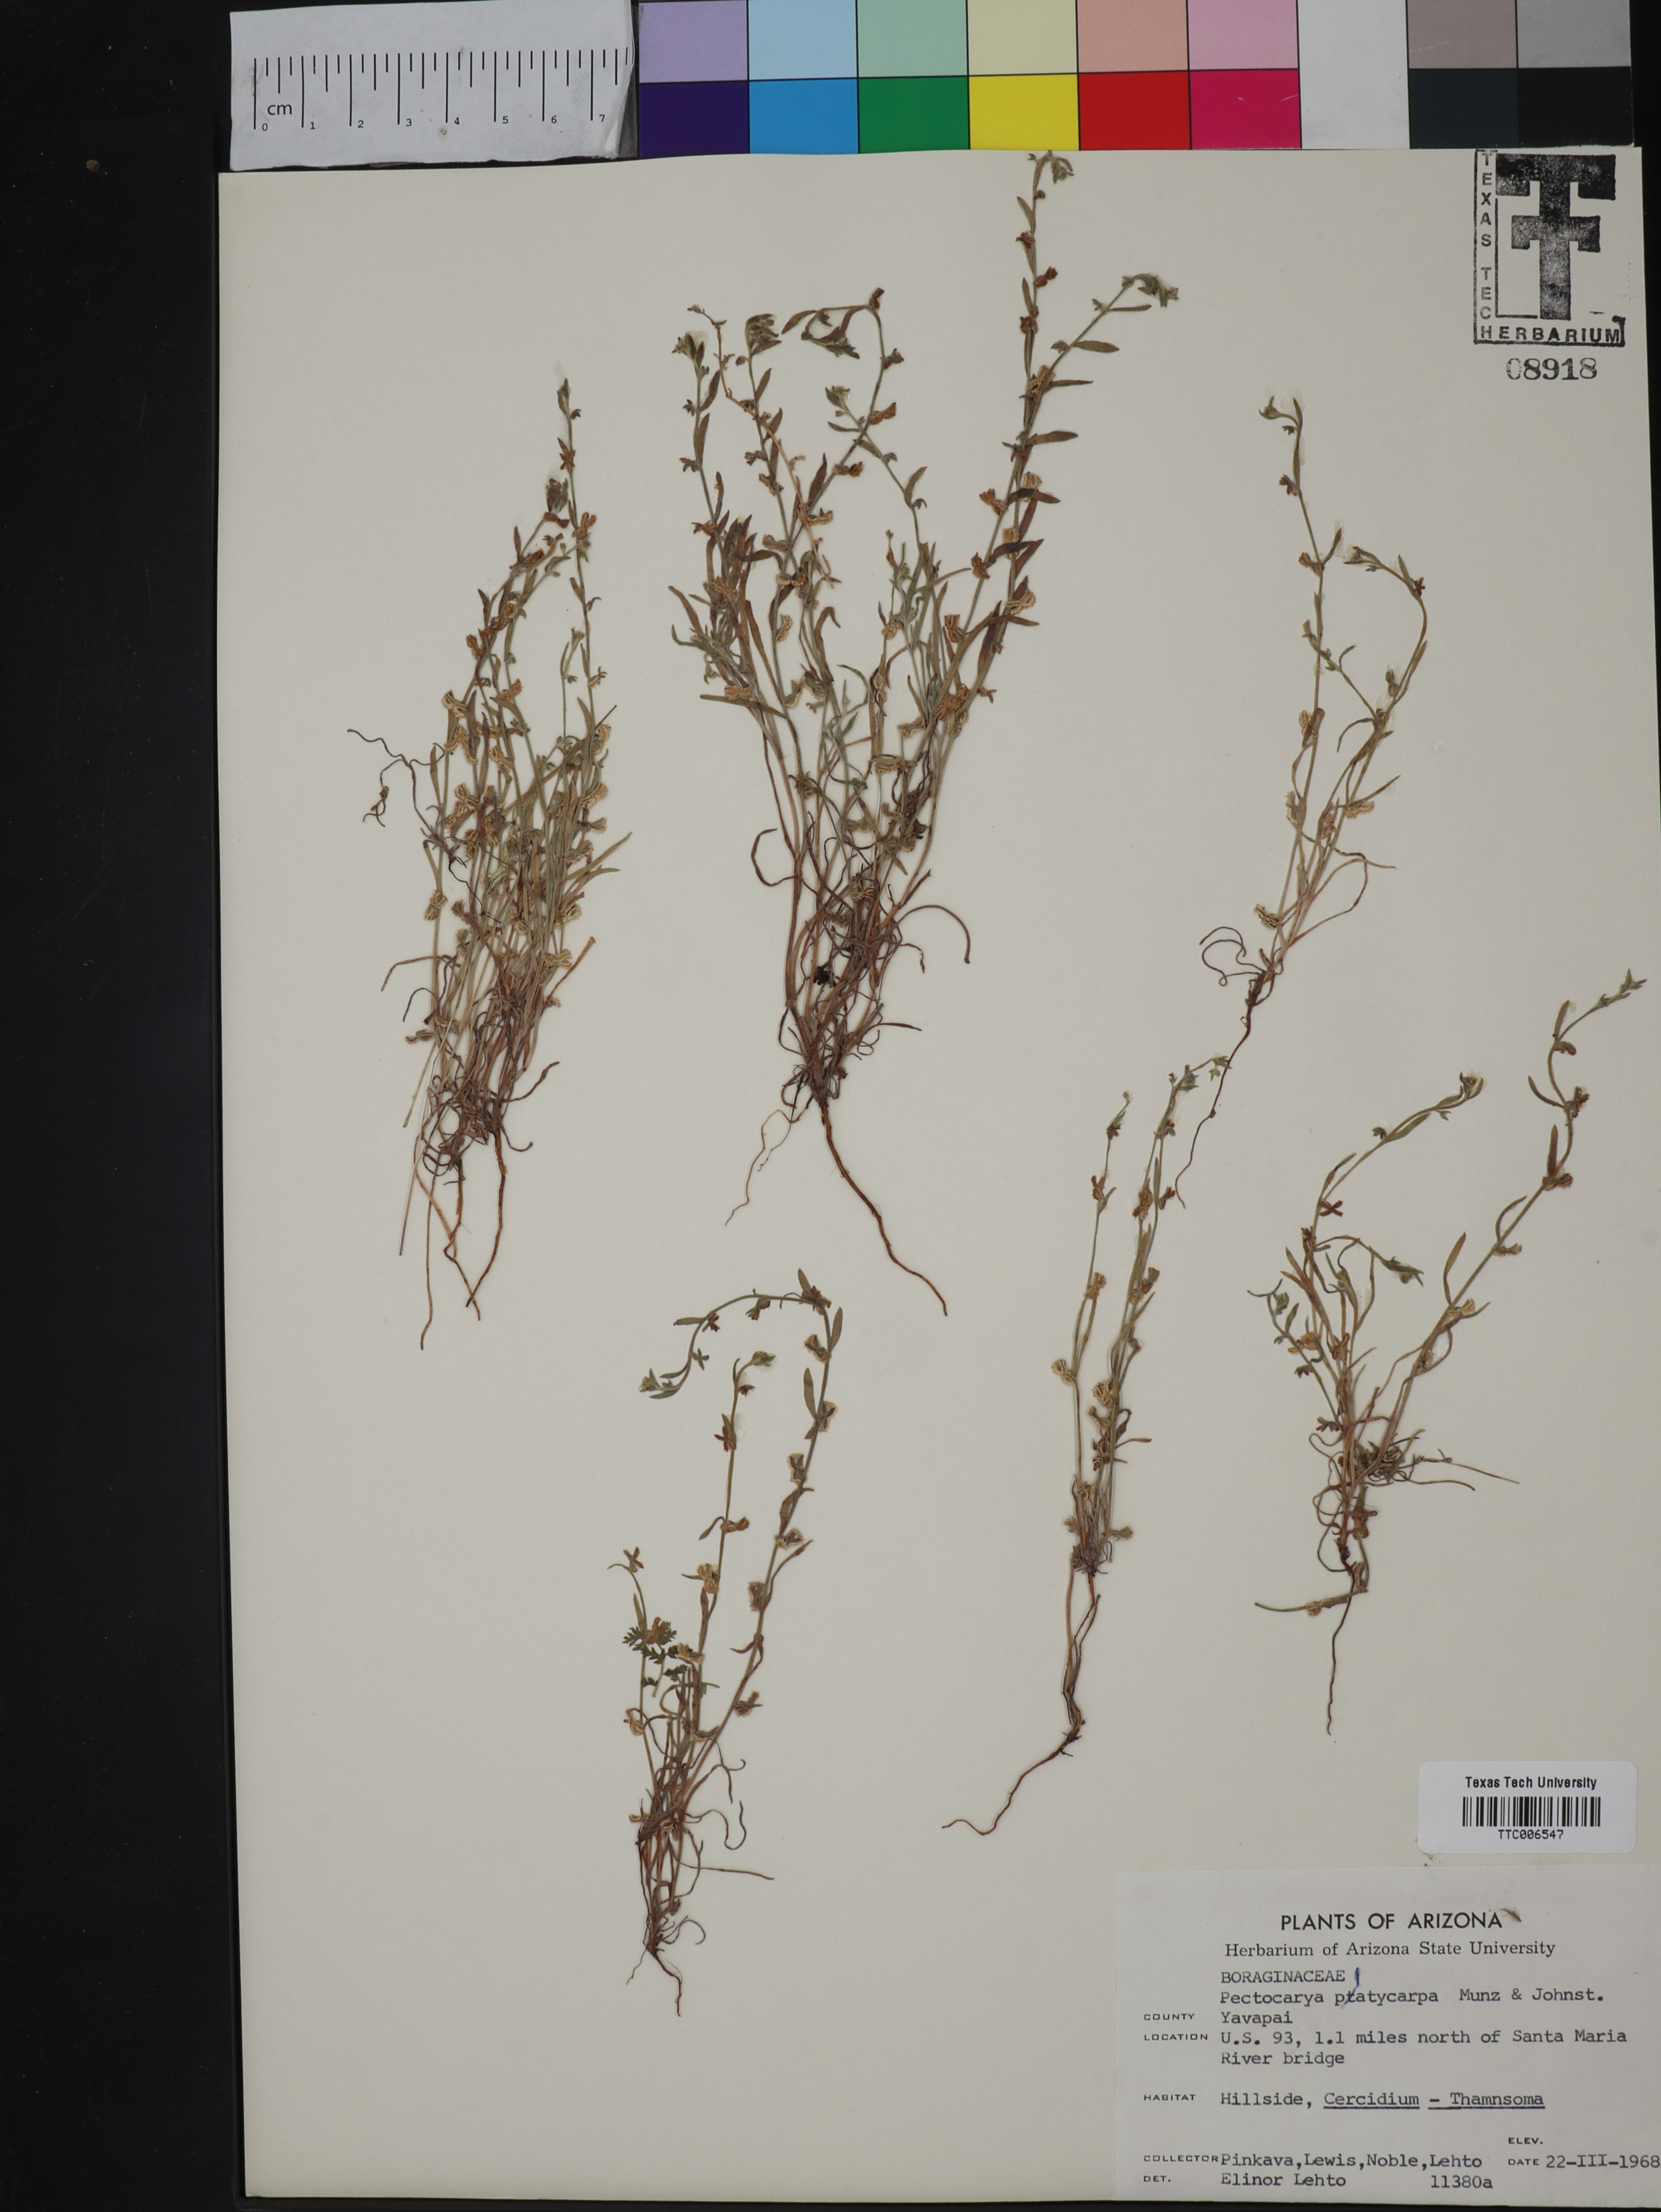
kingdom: Plantae
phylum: Tracheophyta
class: Magnoliopsida
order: Boraginales
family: Boraginaceae
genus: Pectocarya
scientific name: Pectocarya
